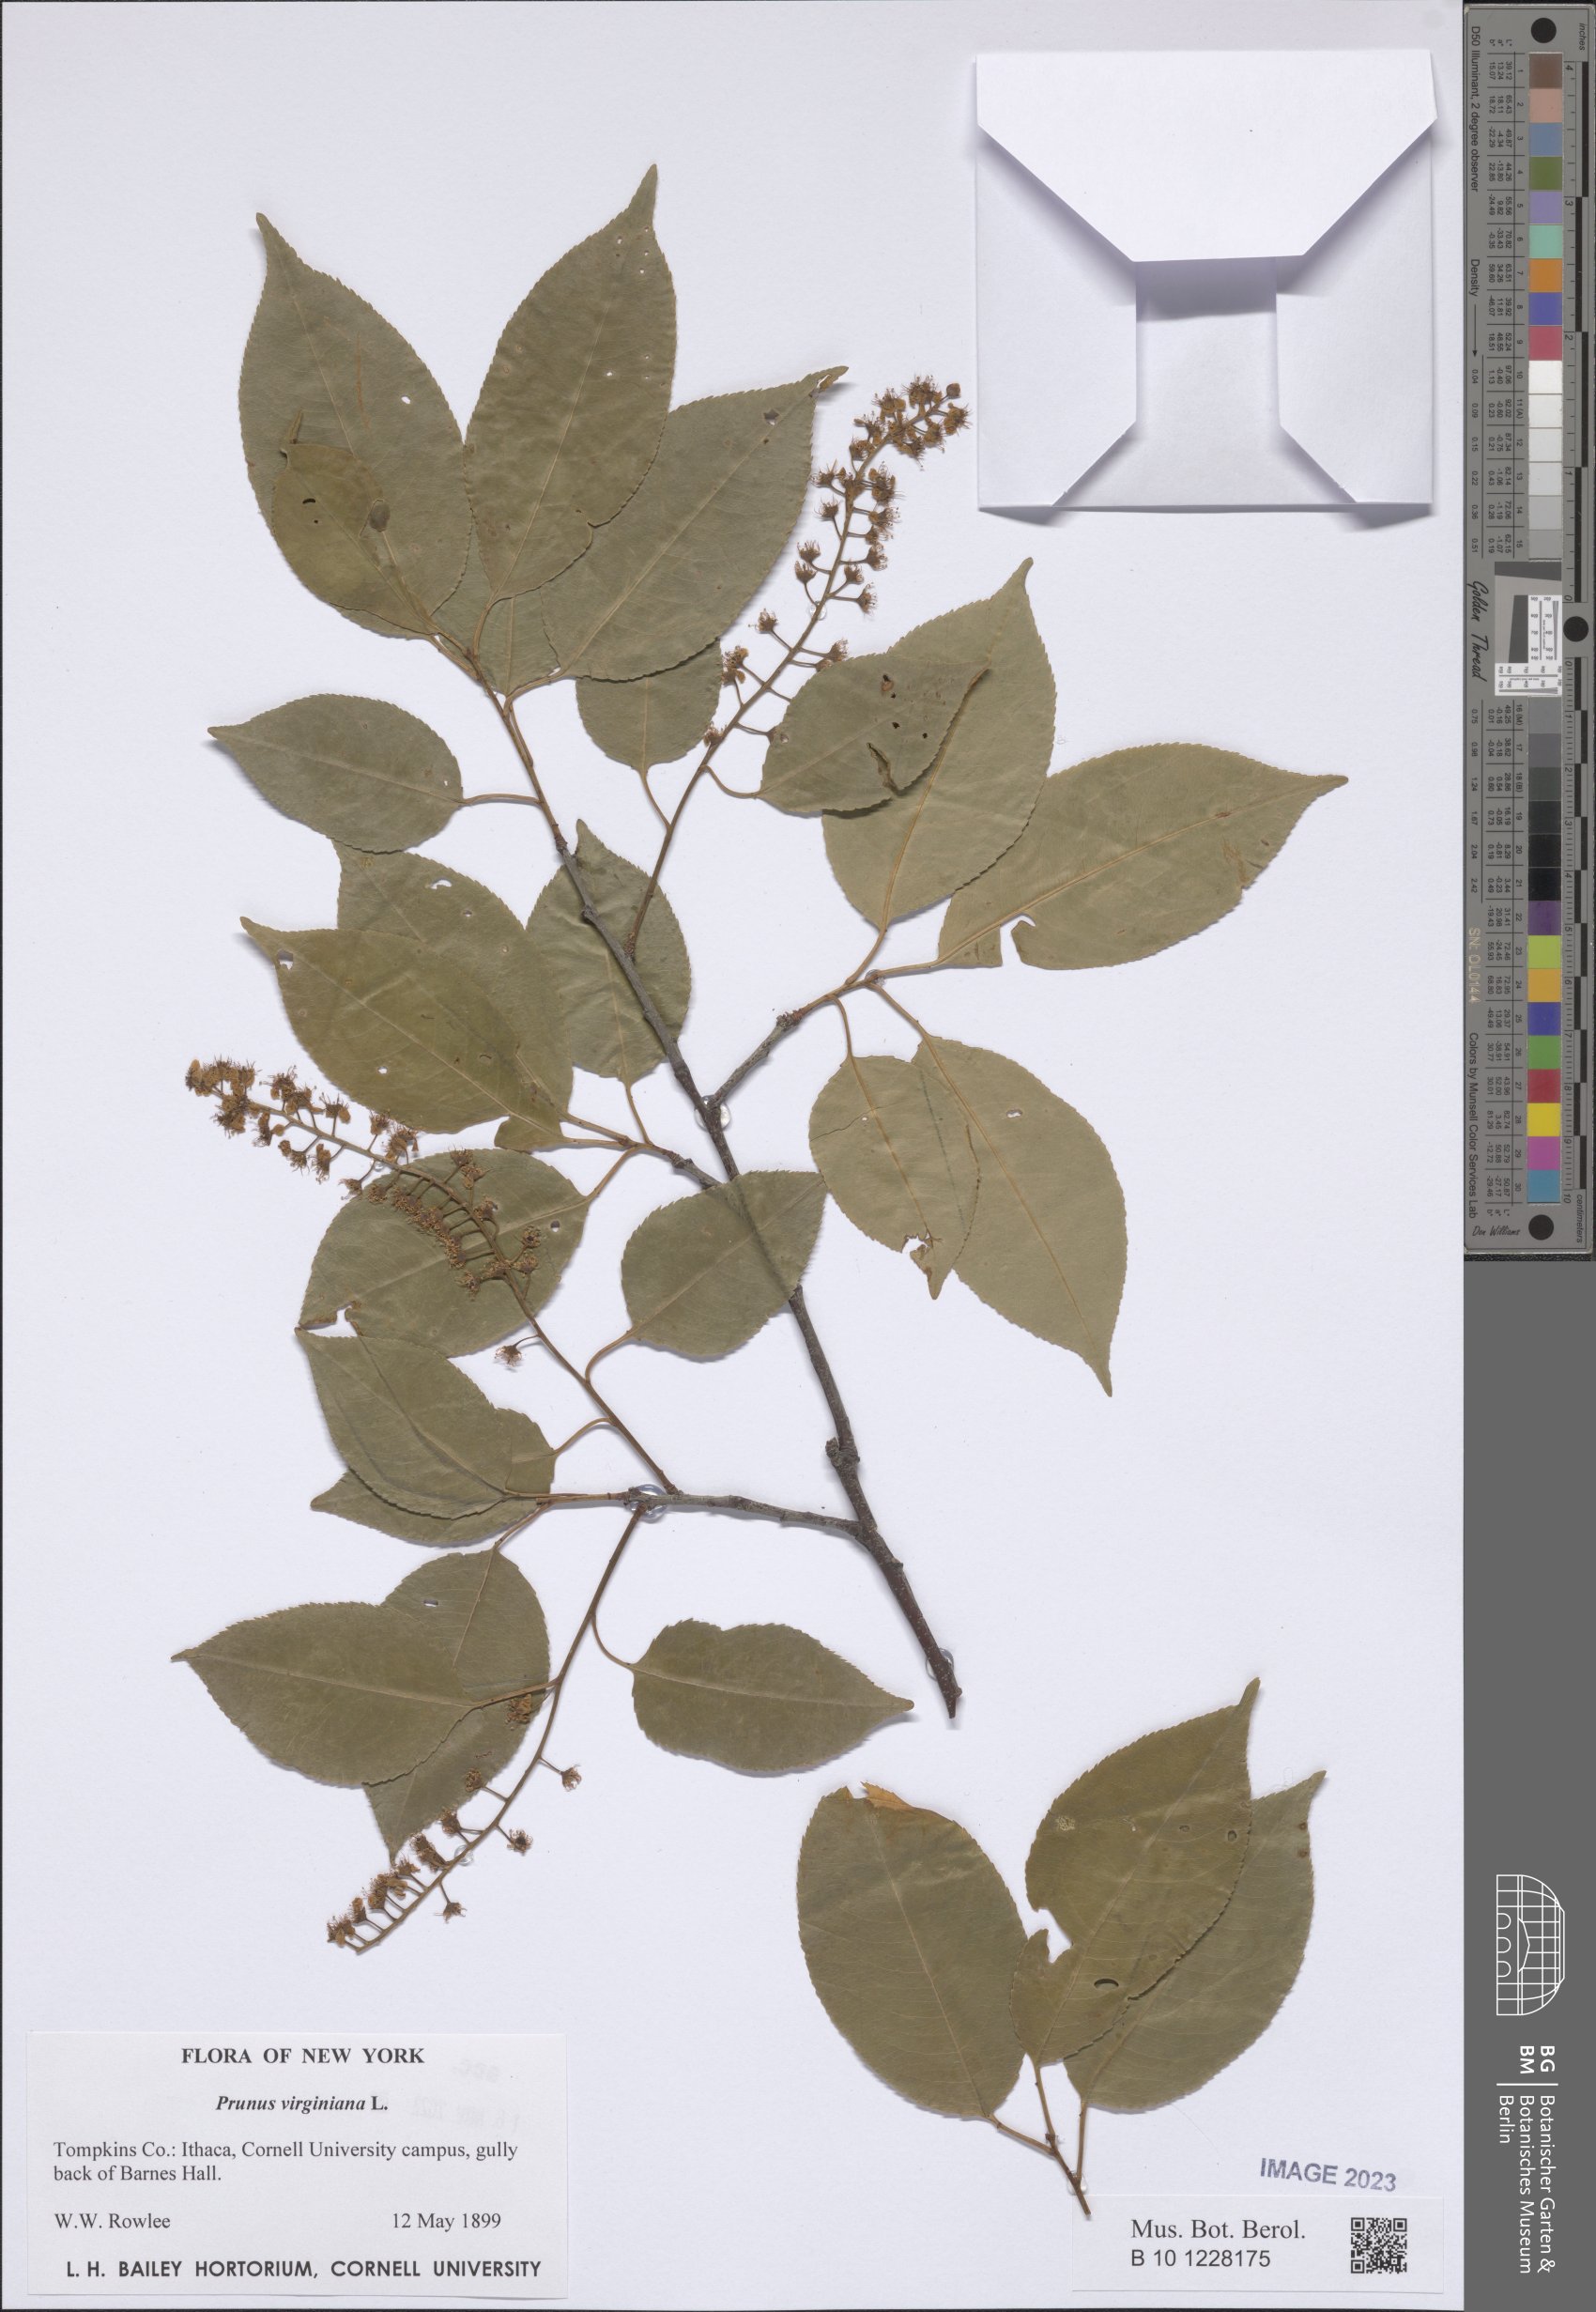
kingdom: Plantae
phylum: Tracheophyta
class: Magnoliopsida
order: Rosales
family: Rosaceae
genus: Prunus
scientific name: Prunus virginiana
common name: Chokecherry
